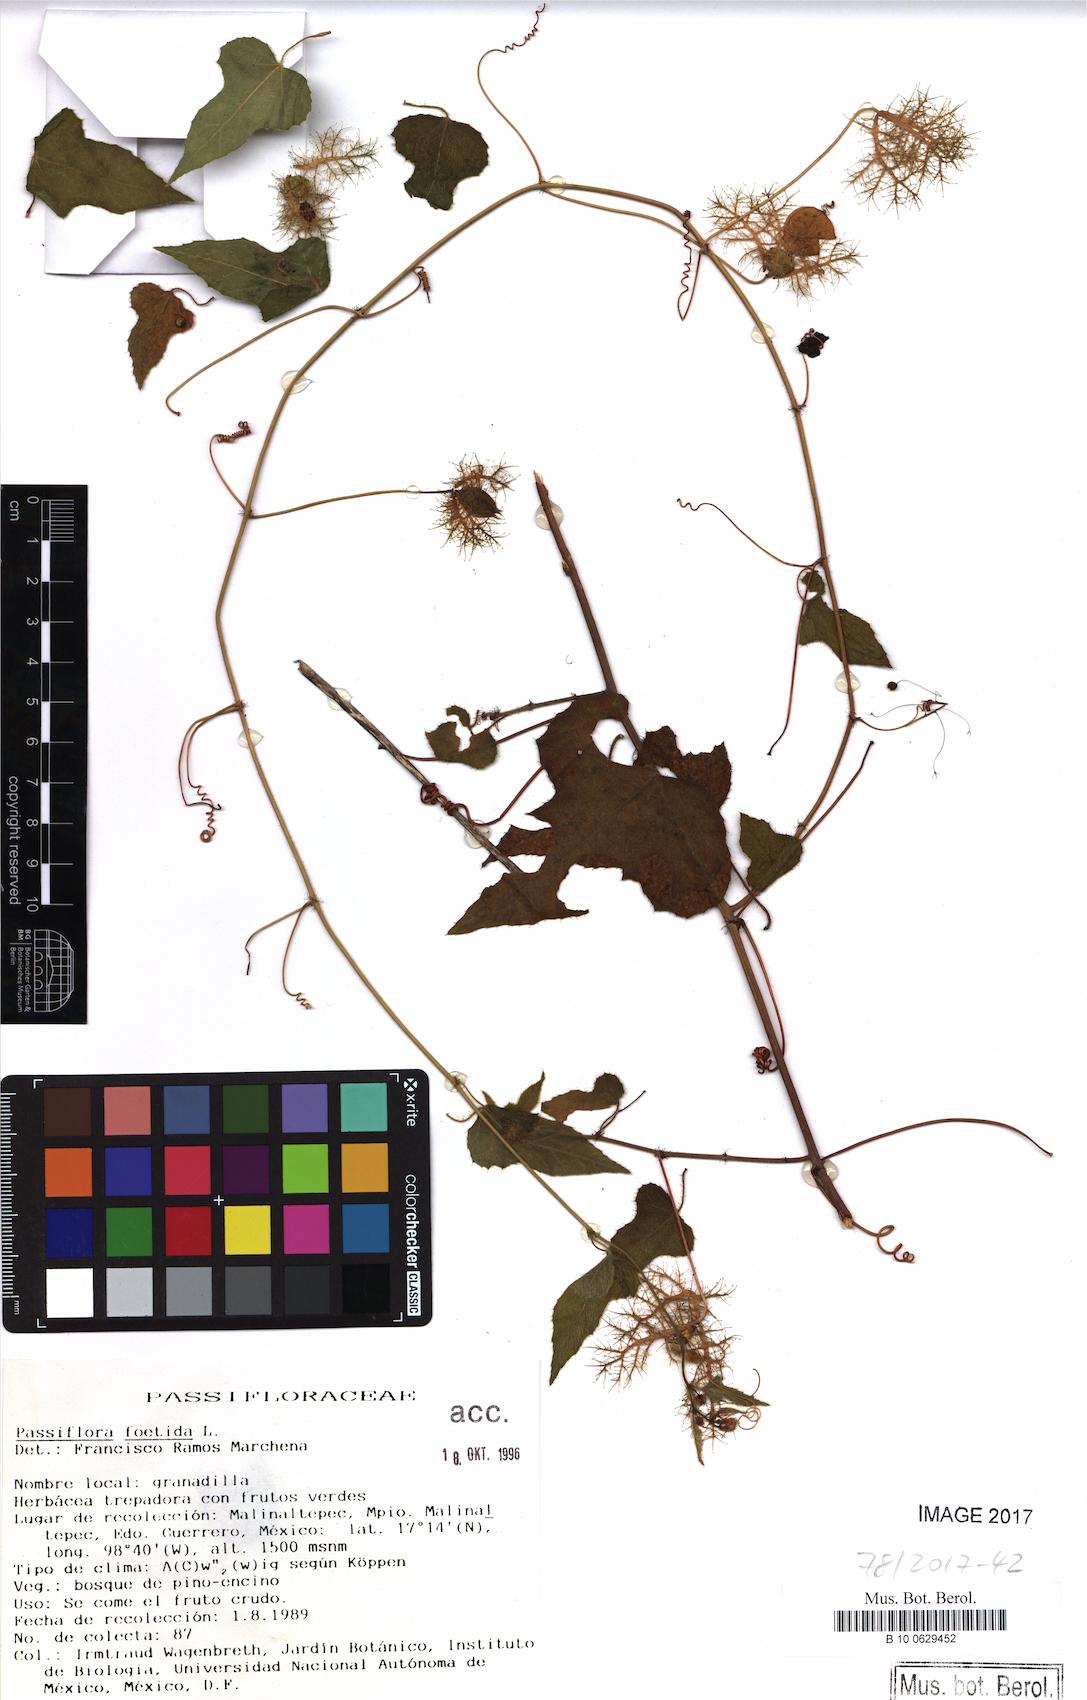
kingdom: Plantae
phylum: Tracheophyta
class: Magnoliopsida
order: Malpighiales
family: Passifloraceae
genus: Passiflora
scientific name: Passiflora foetida
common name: Fetid passionflower
